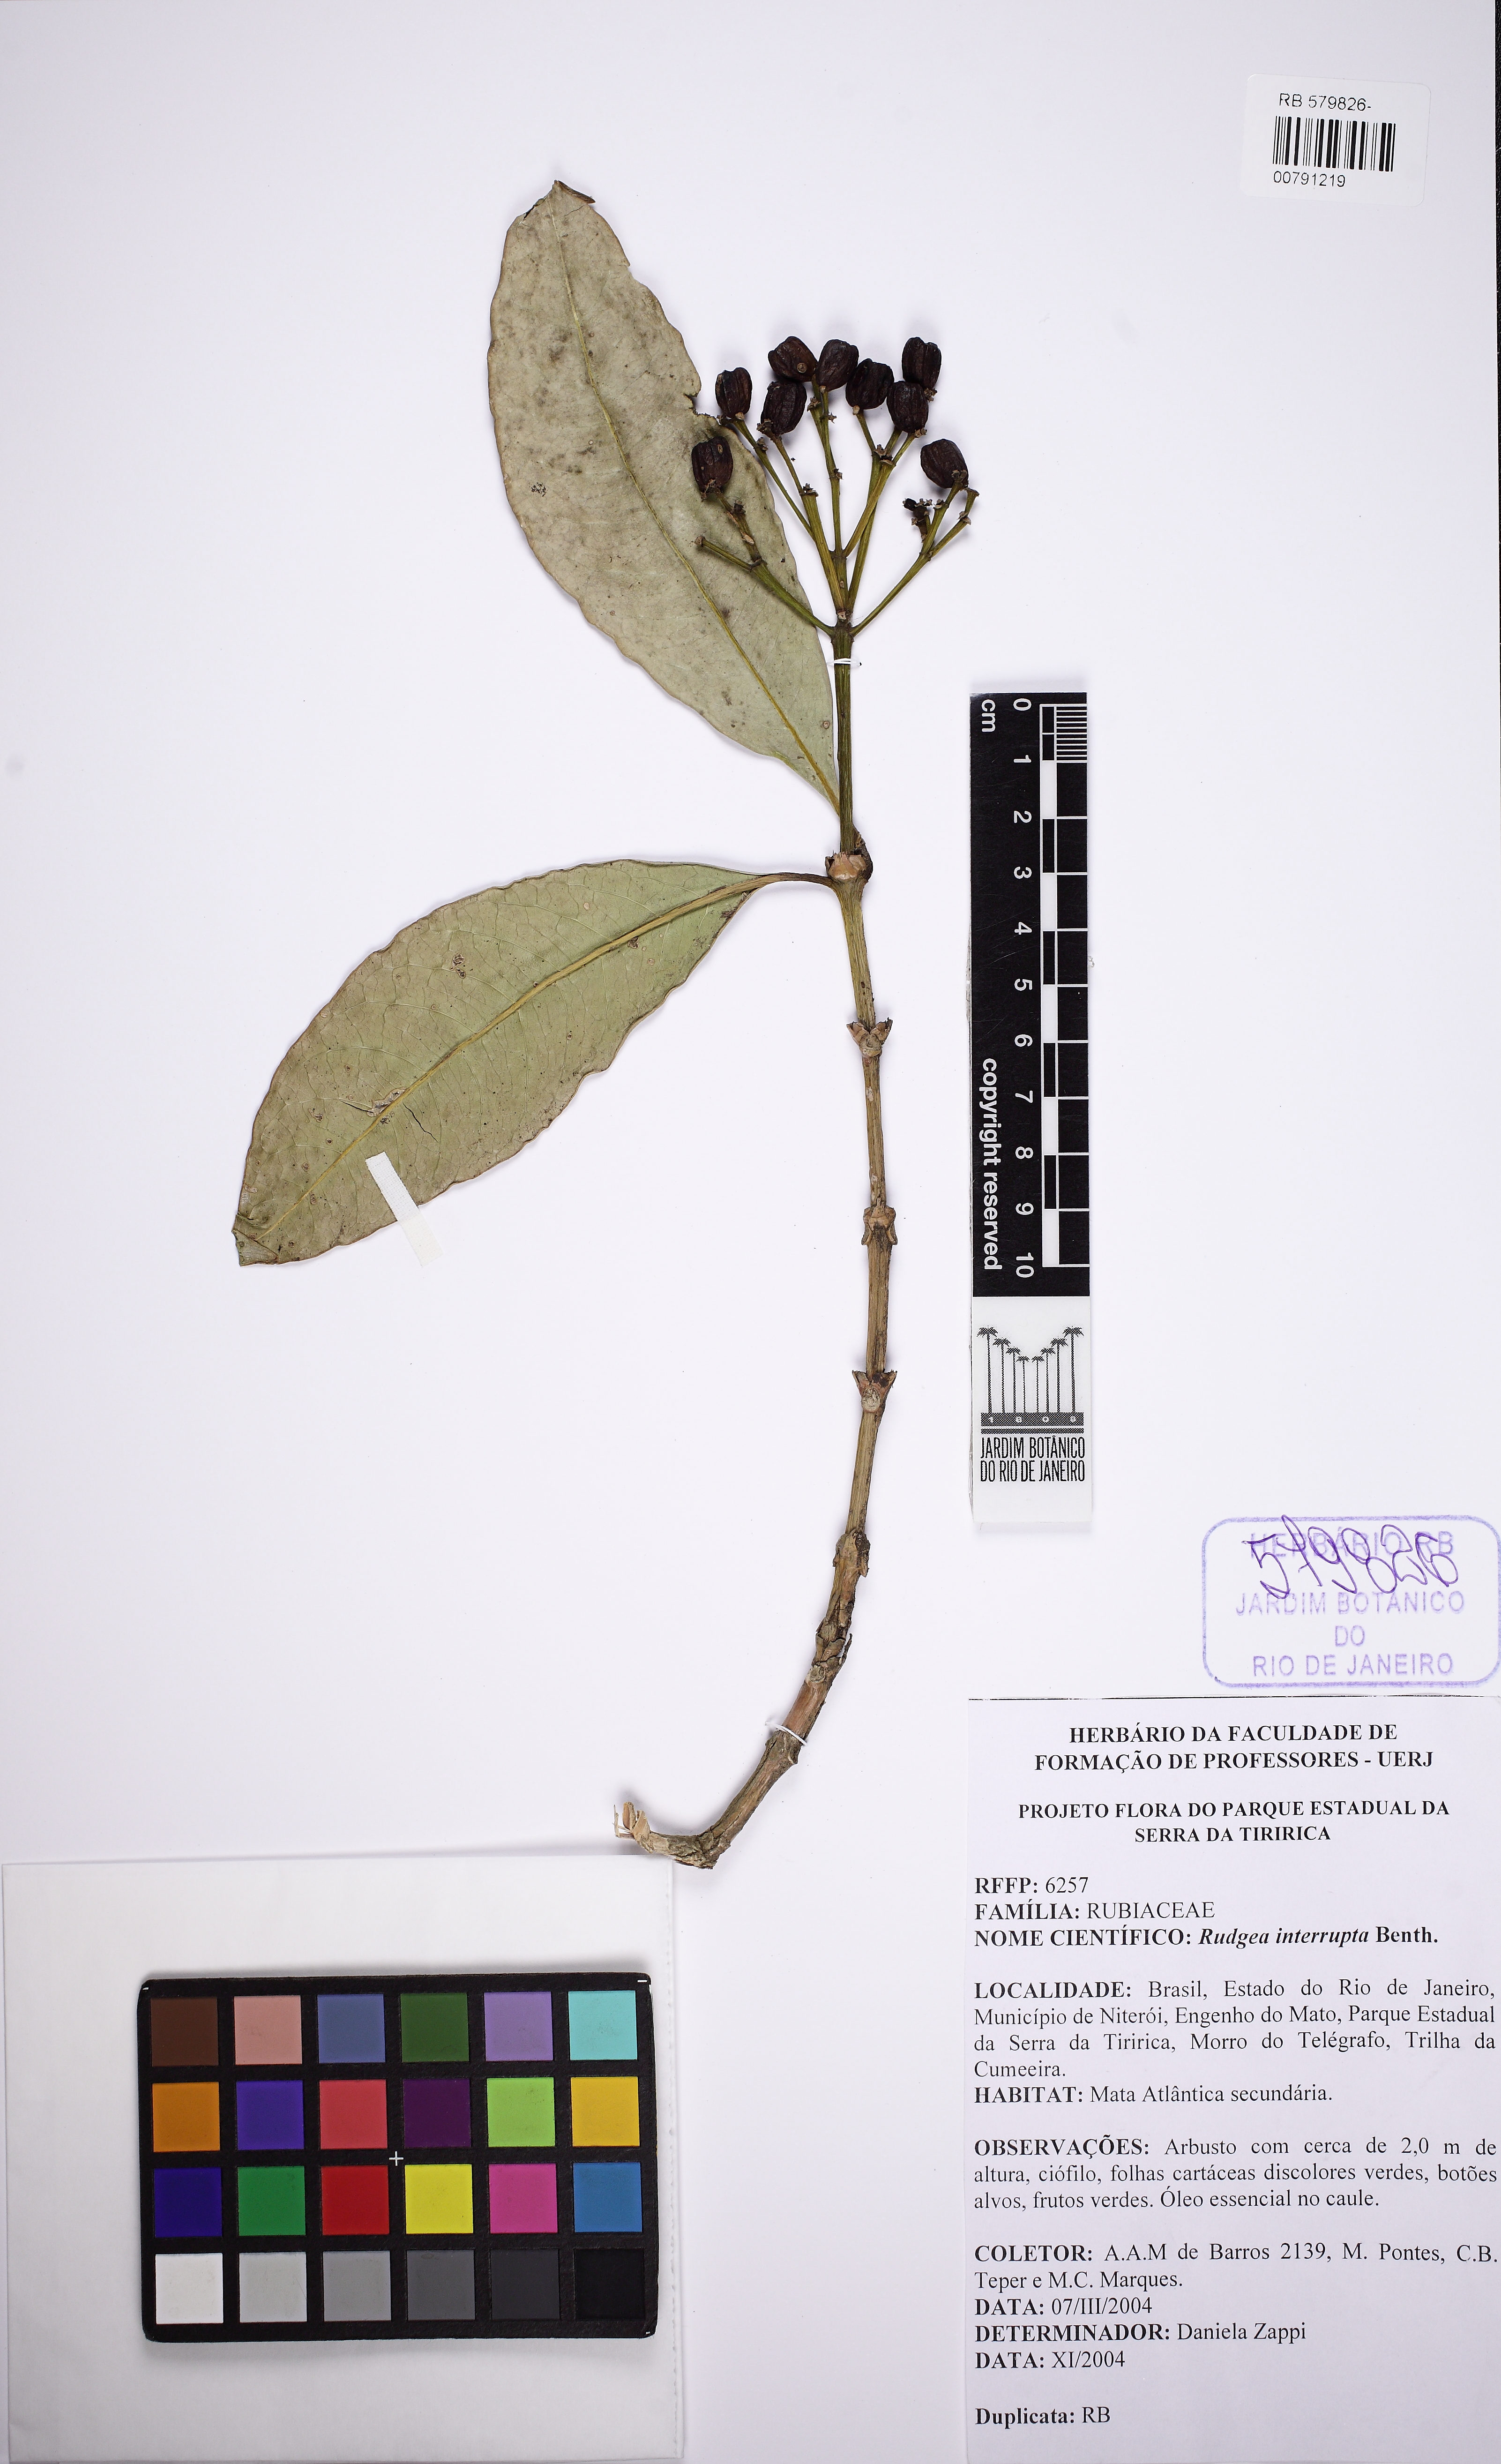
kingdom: Plantae
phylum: Tracheophyta
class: Magnoliopsida
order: Gentianales
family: Rubiaceae
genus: Rudgea
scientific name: Rudgea interrupta
